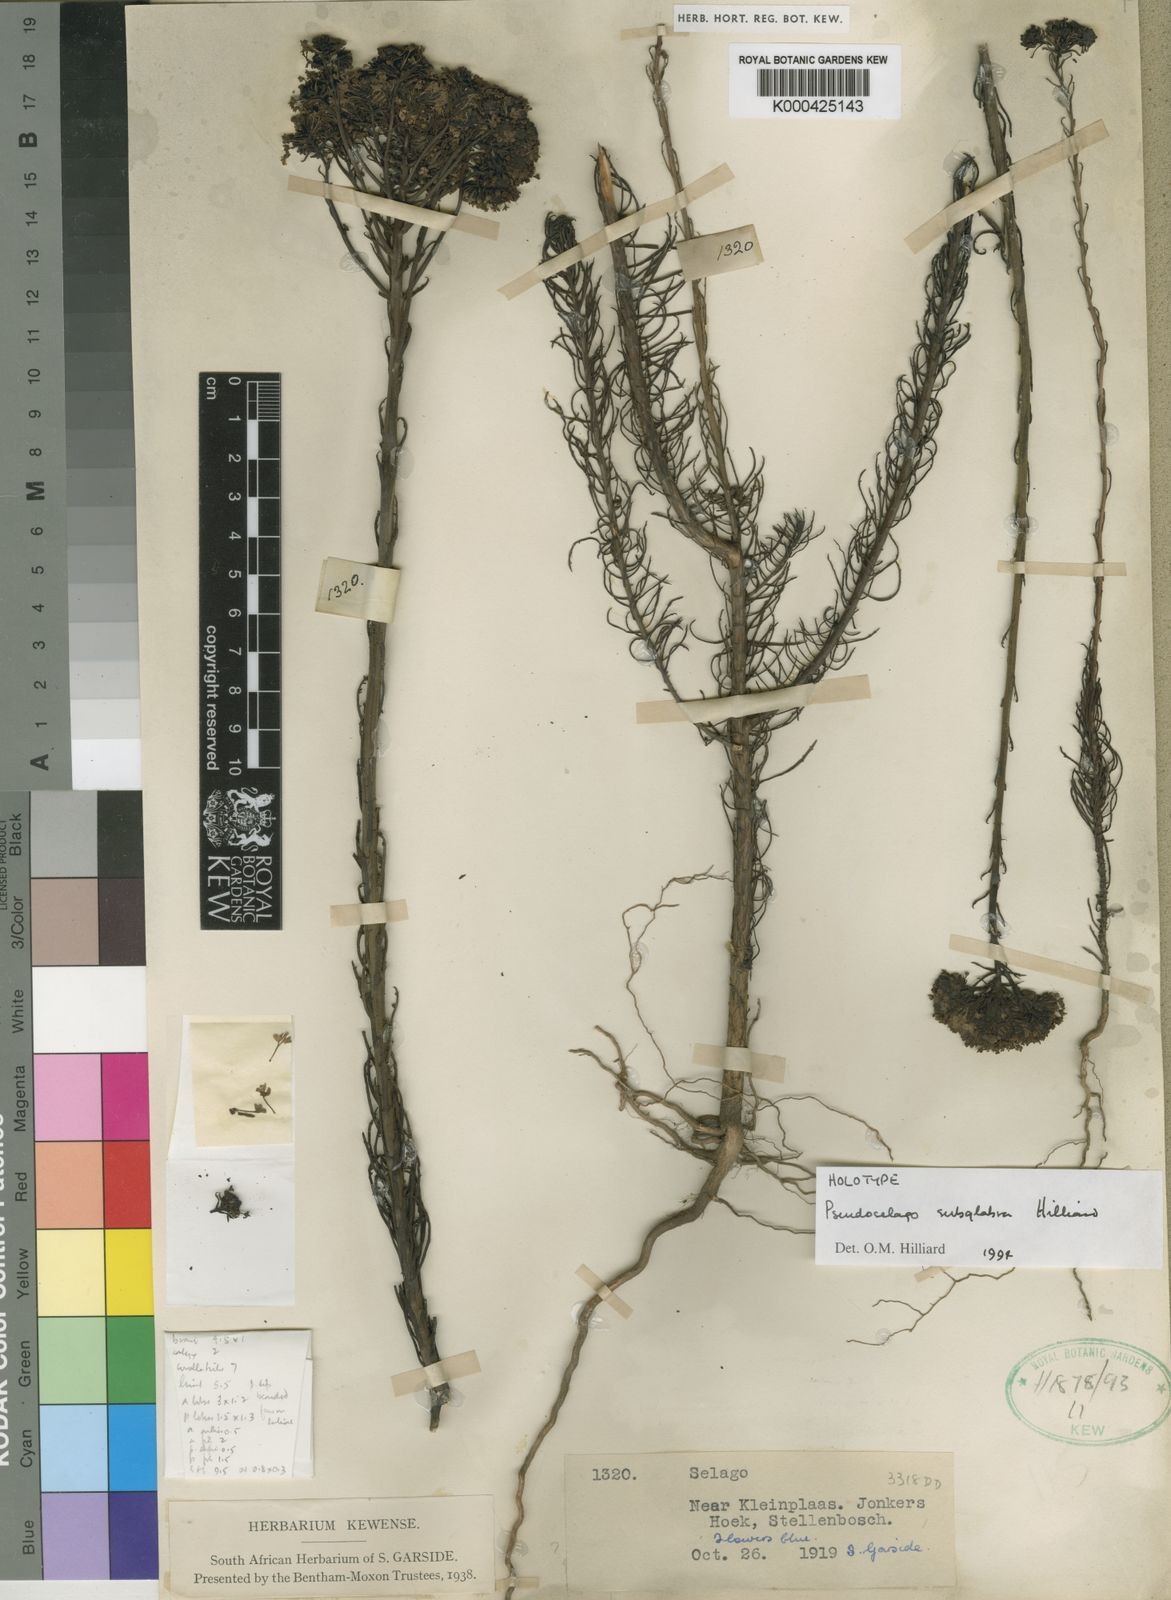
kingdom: Plantae
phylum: Tracheophyta
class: Magnoliopsida
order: Lamiales
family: Scrophulariaceae
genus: Pseudoselago
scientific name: Pseudoselago subglabra
